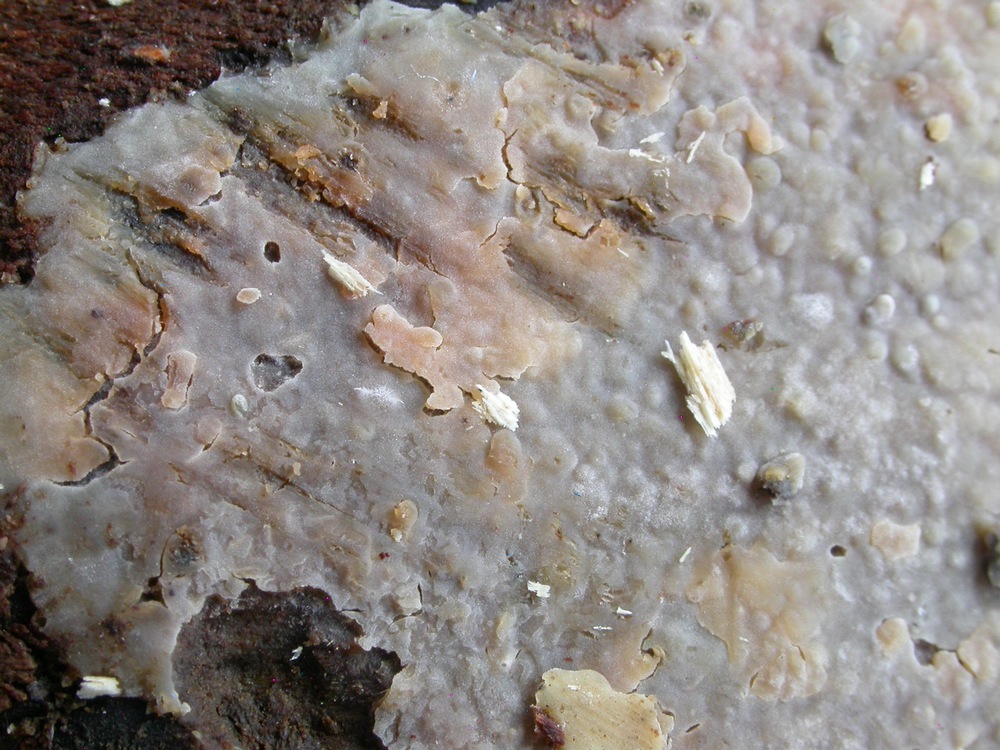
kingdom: Fungi
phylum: Basidiomycota
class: Agaricomycetes
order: Agaricales
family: Radulomycetaceae
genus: Radulomyces
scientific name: Radulomyces confluens
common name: glat naftalinskind
